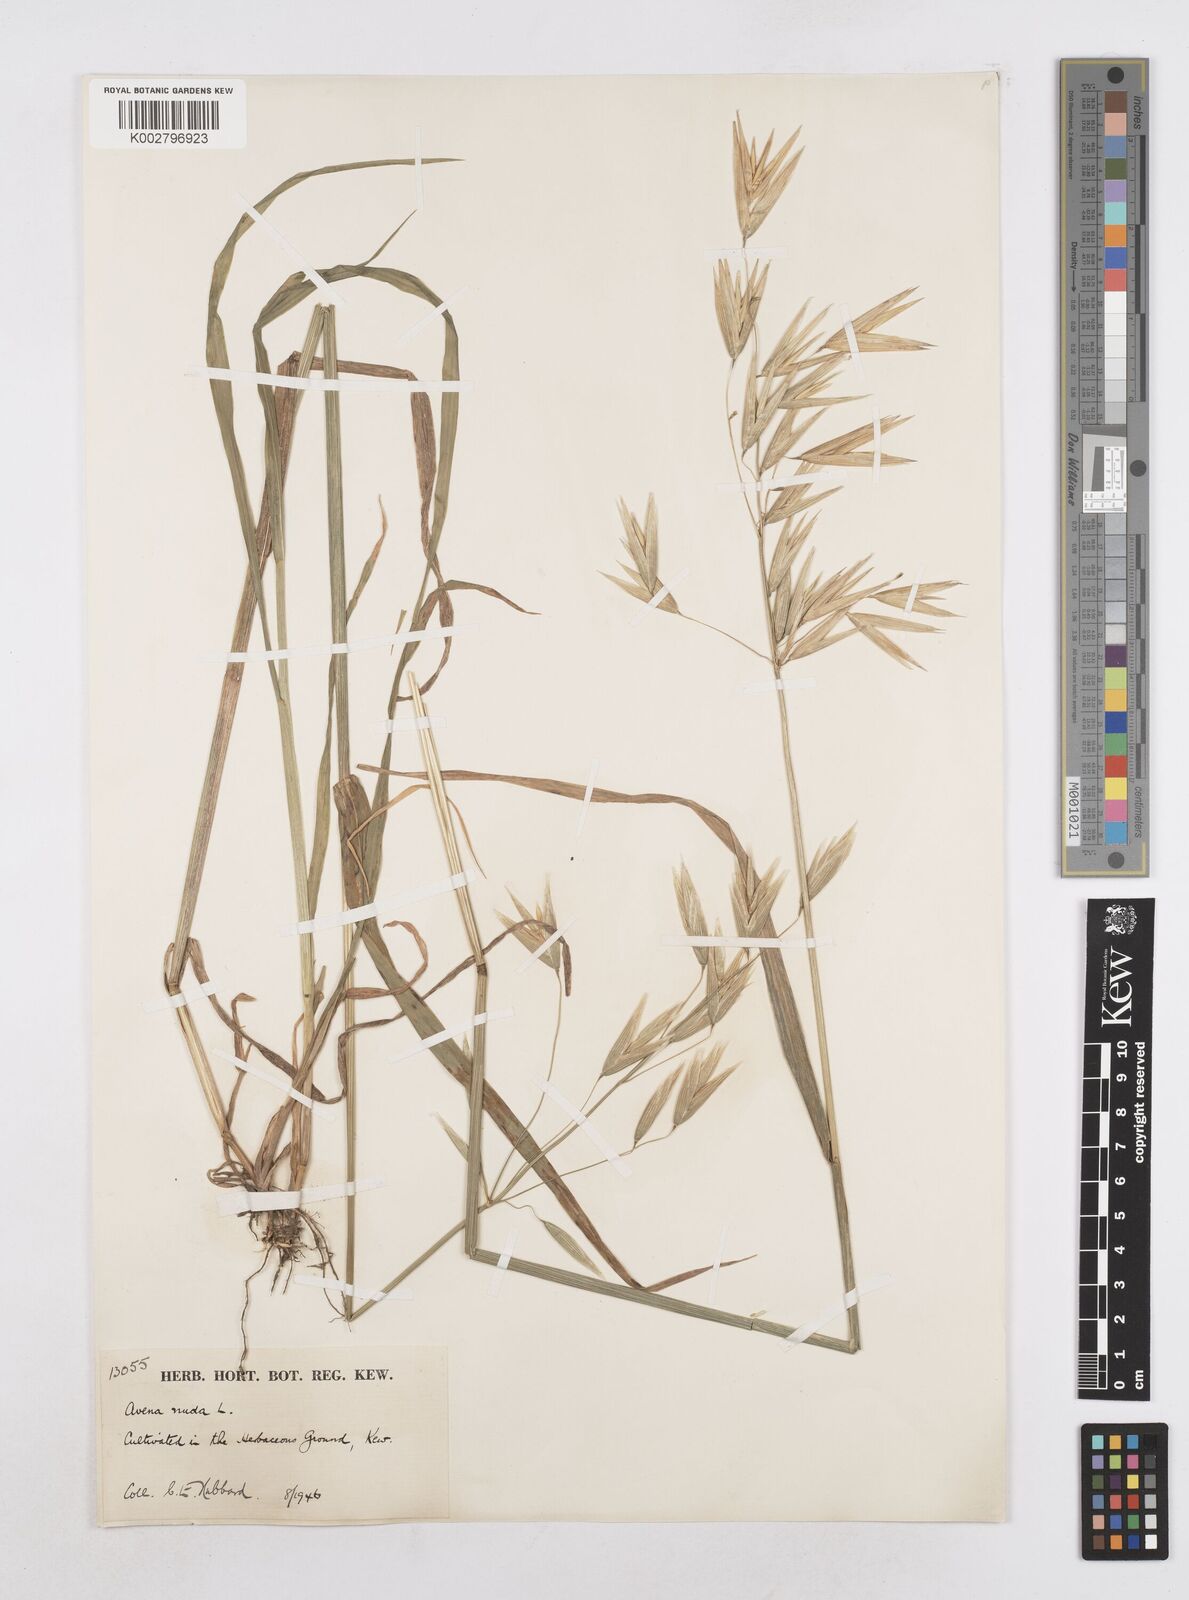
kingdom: Plantae
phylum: Tracheophyta
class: Liliopsida
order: Poales
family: Poaceae
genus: Avena
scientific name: Avena nuda
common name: Naked oat
